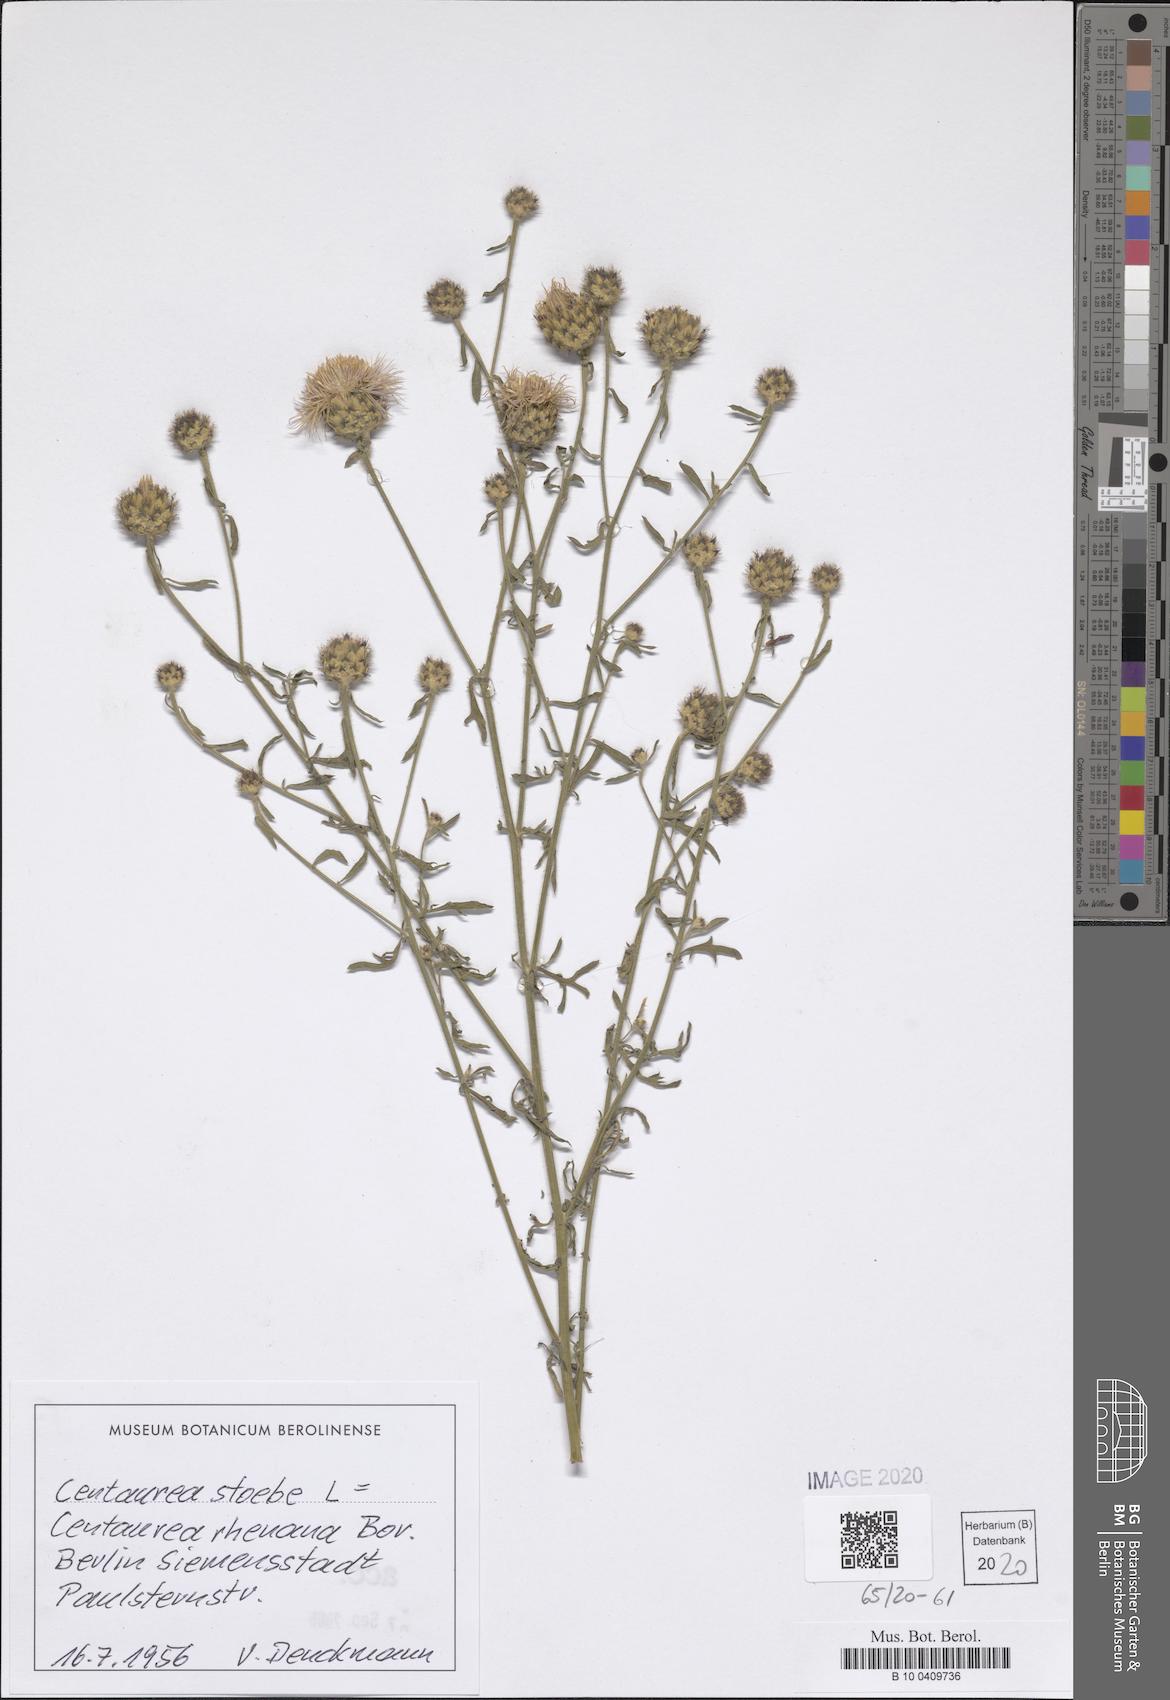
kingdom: Plantae
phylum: Tracheophyta
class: Magnoliopsida
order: Asterales
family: Asteraceae
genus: Centaurea
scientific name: Centaurea stoebe
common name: Spotted knapweed
